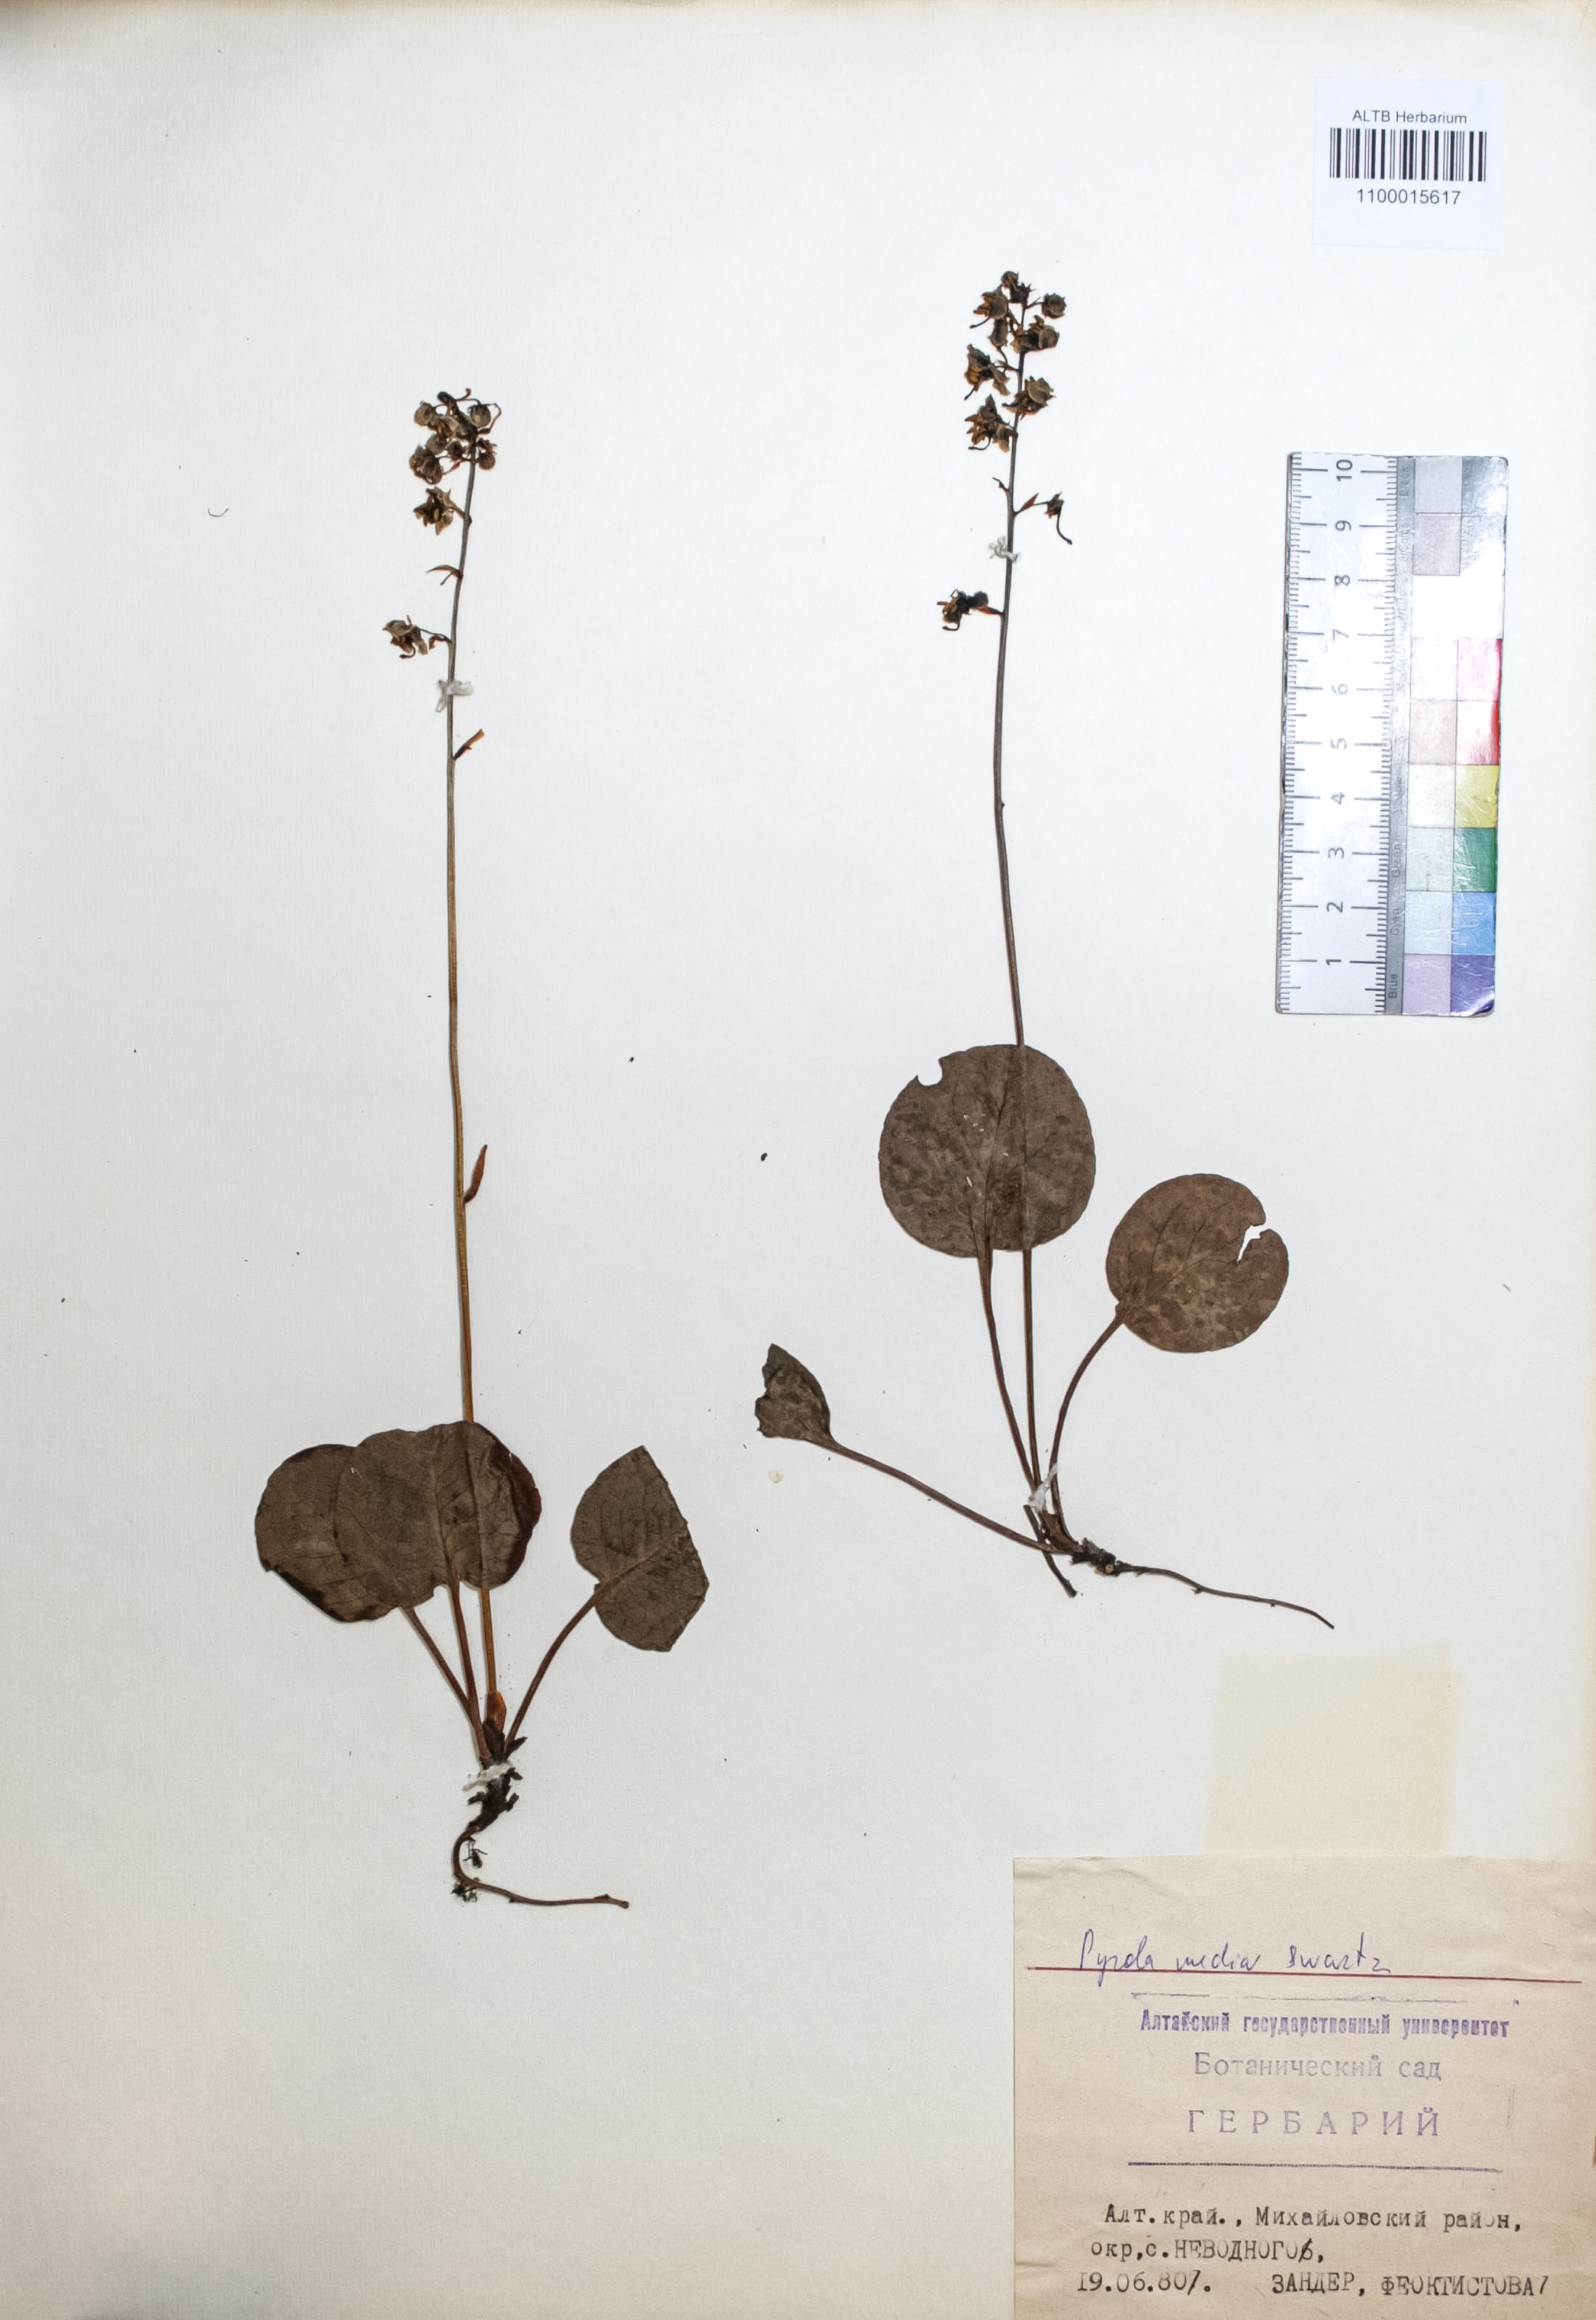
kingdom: Plantae
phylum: Tracheophyta
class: Magnoliopsida
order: Ericales
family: Ericaceae
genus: Pyrola
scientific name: Pyrola media
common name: Intermediate wintergreen
